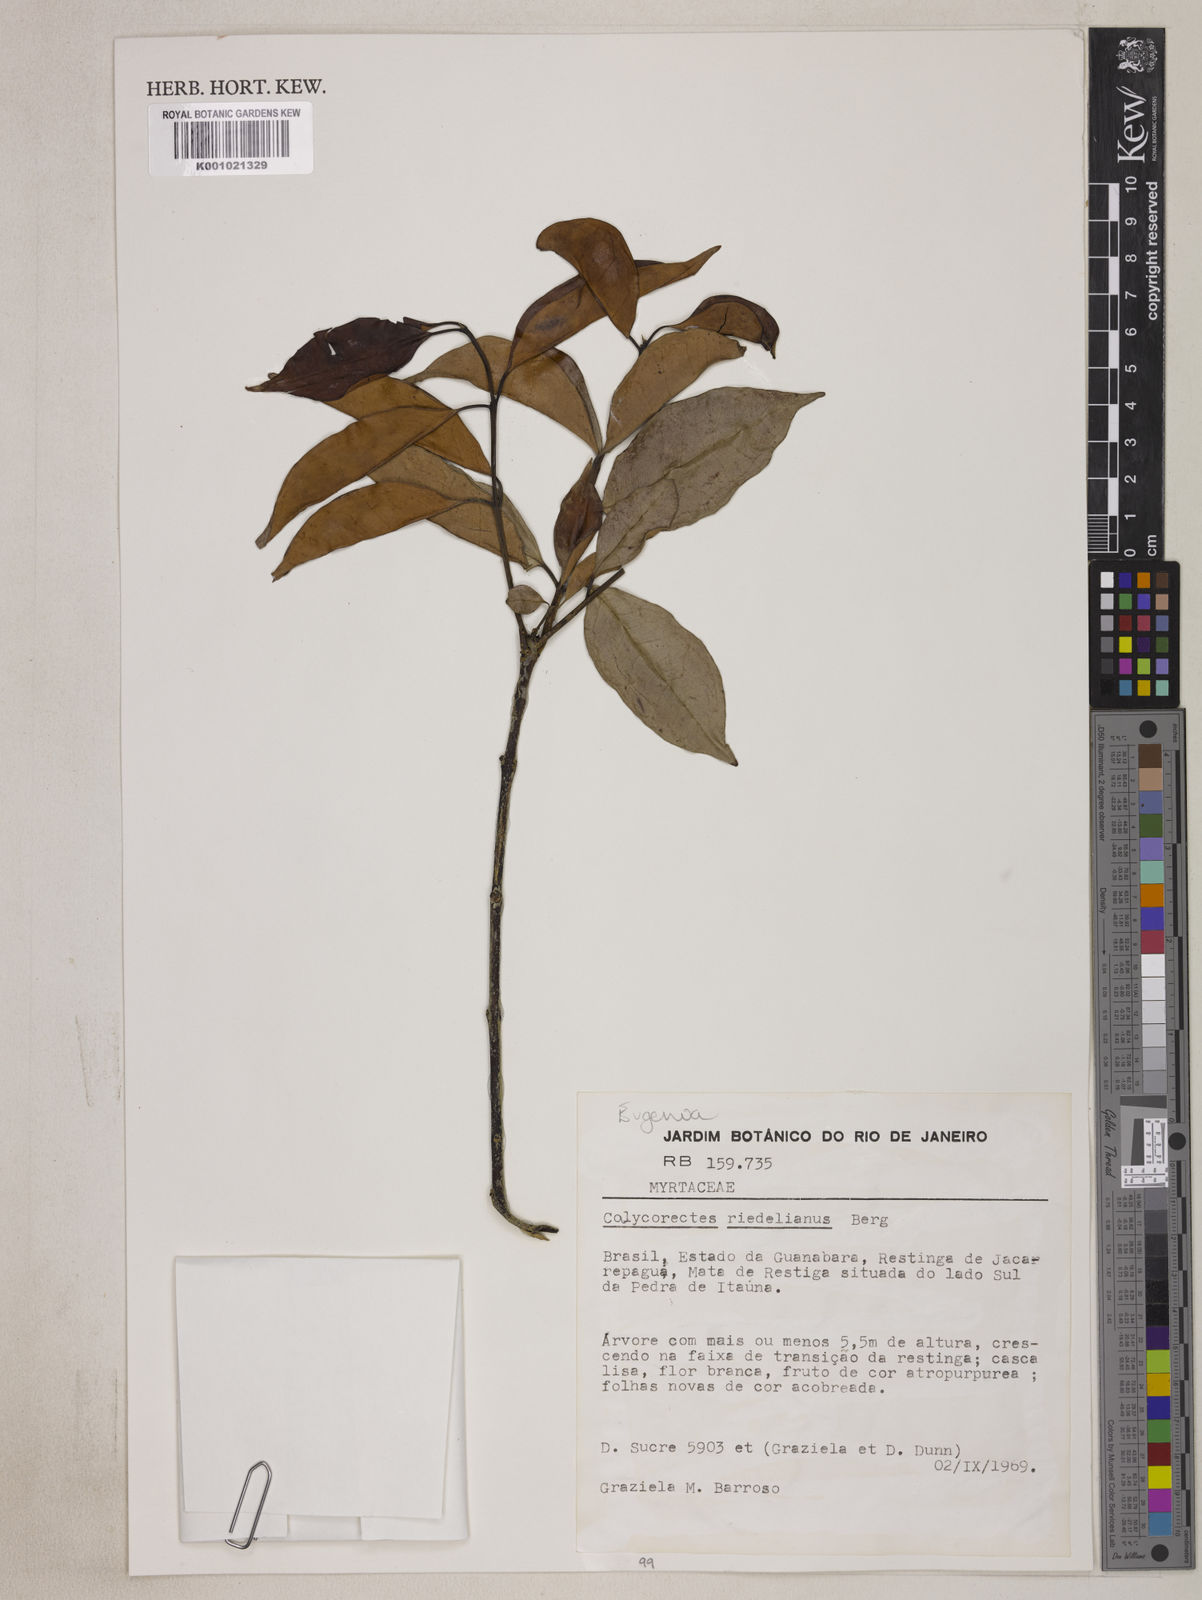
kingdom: Plantae
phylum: Tracheophyta
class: Magnoliopsida
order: Myrtales
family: Myrtaceae
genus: Eugenia
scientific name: Eugenia brevistyla
